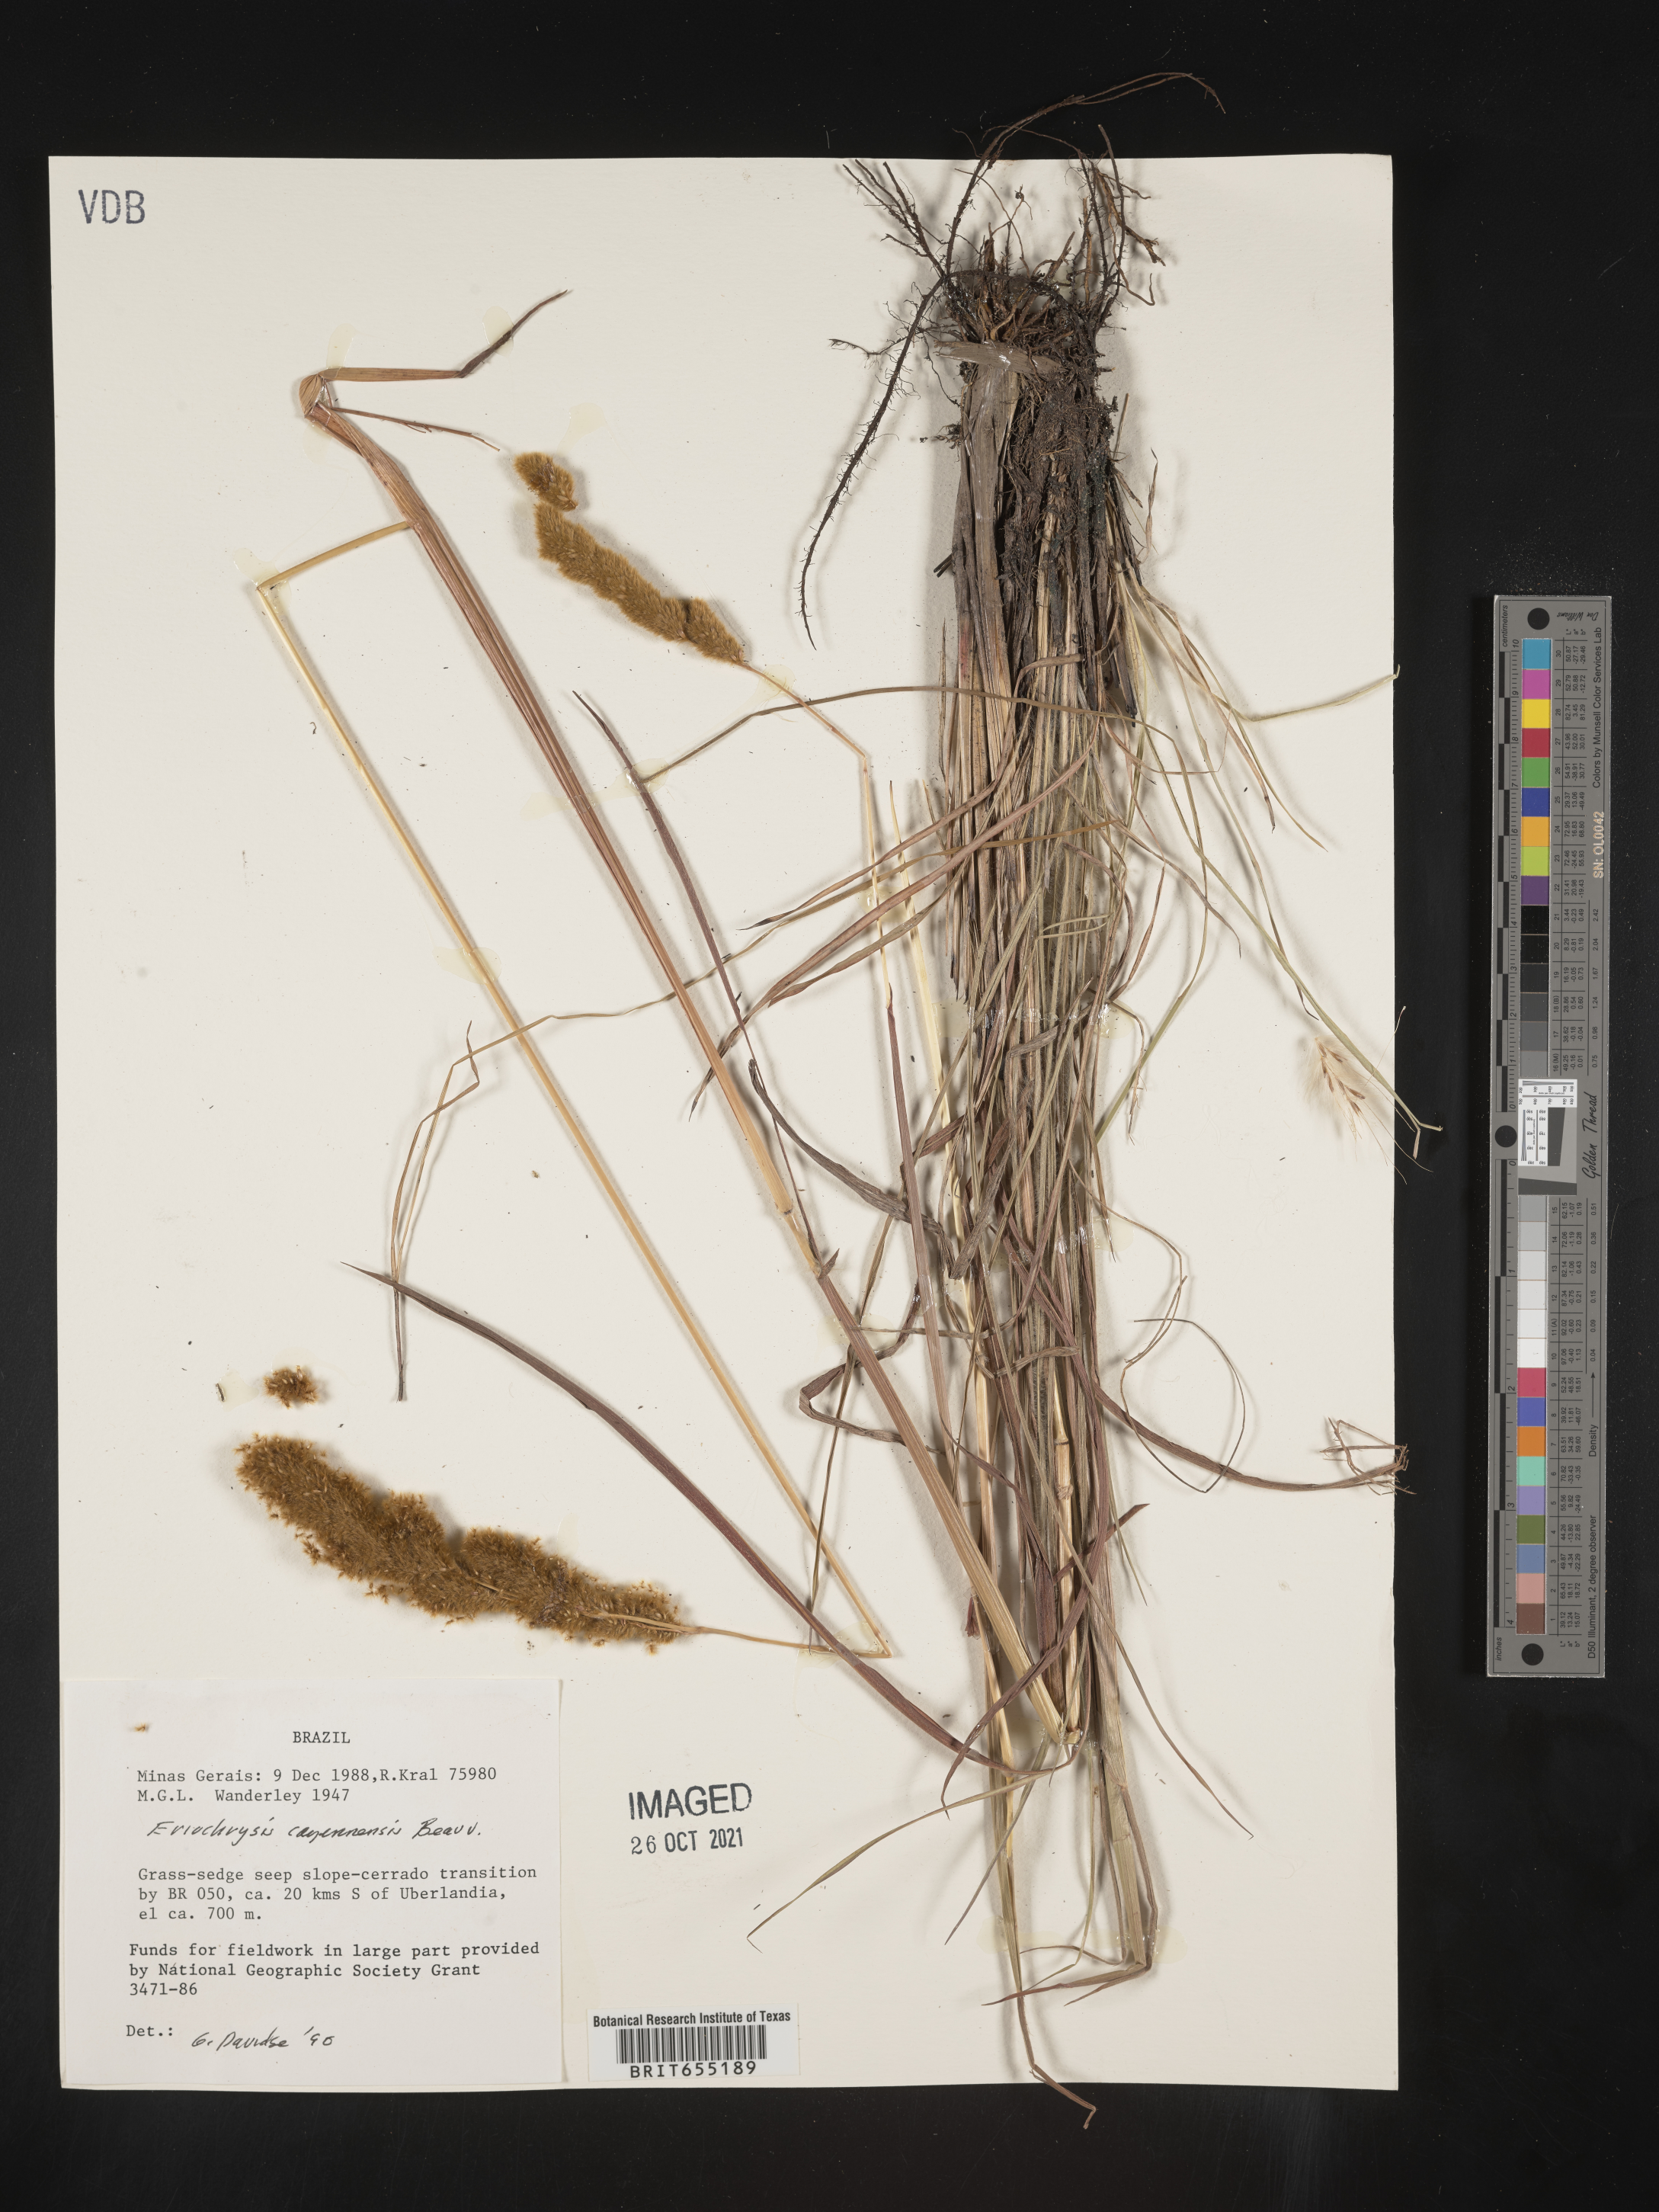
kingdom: Plantae
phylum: Tracheophyta
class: Liliopsida
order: Poales
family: Poaceae
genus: Eriochrysis
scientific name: Eriochrysis
